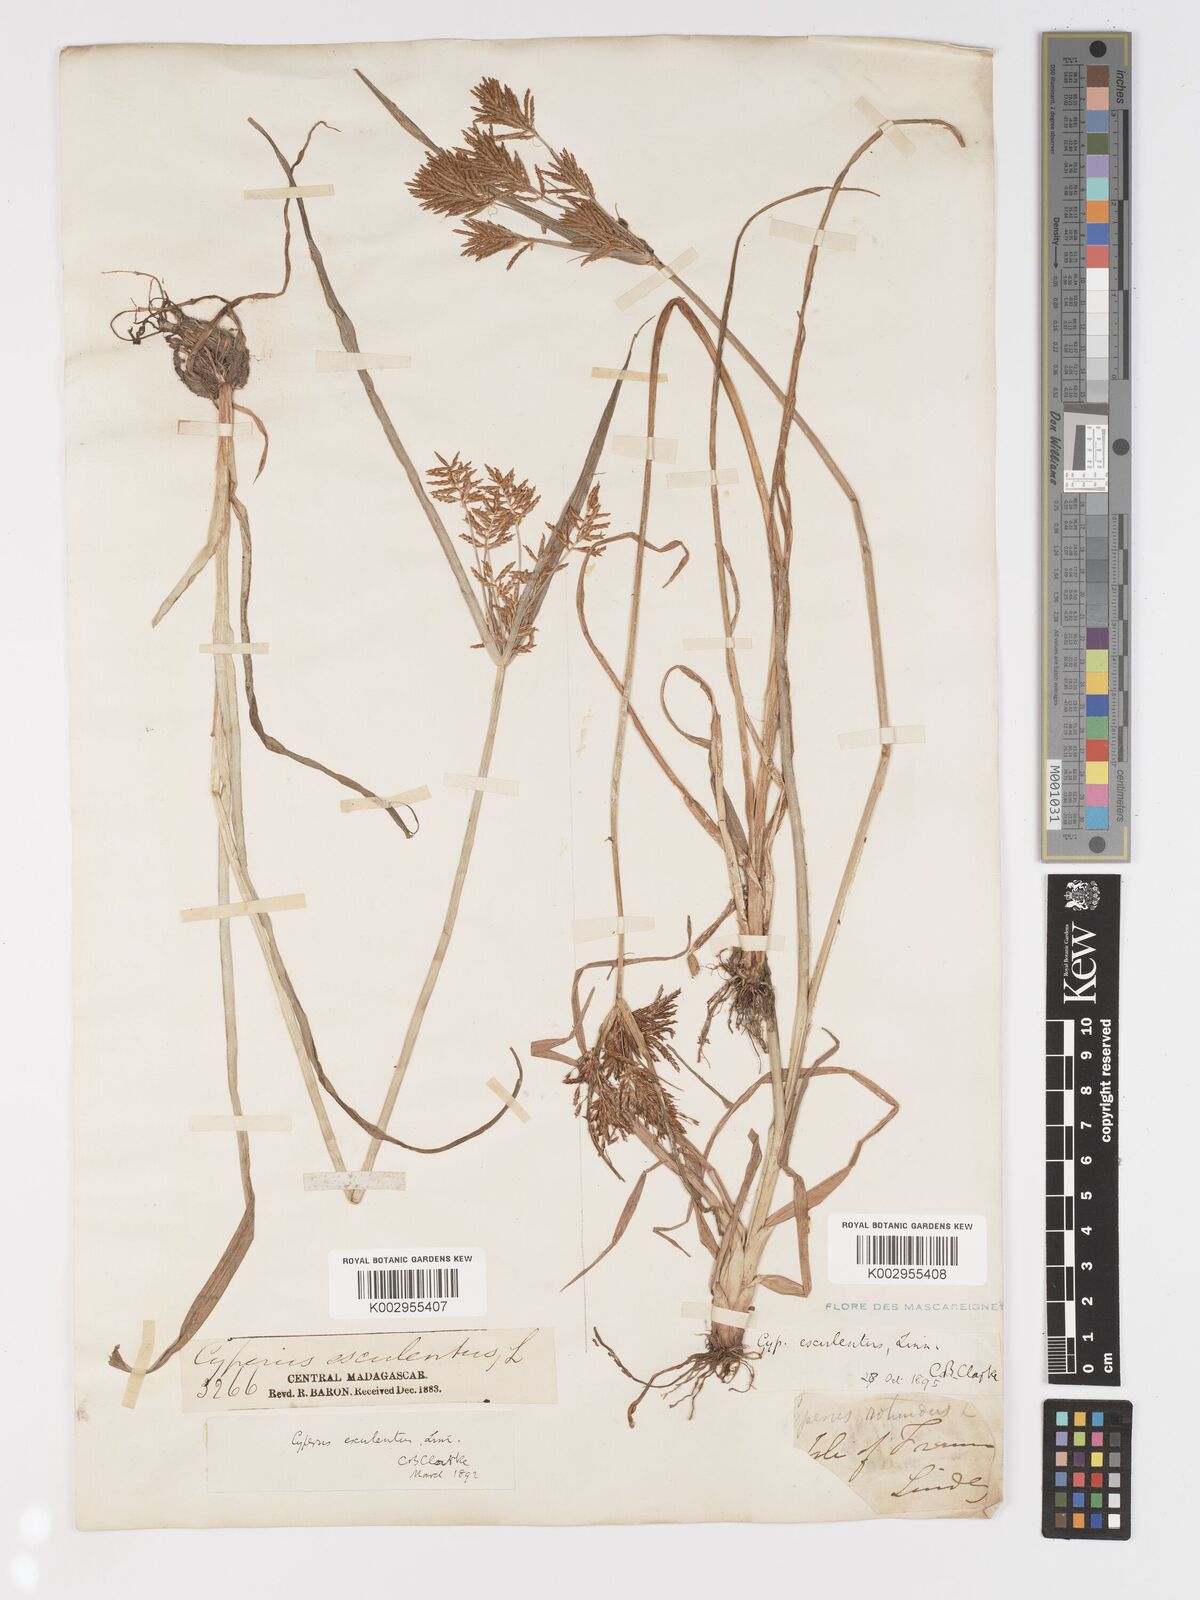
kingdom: Plantae
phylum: Tracheophyta
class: Liliopsida
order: Poales
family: Cyperaceae
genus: Cyperus
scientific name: Cyperus esculentus
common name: Yellow nutsedge
